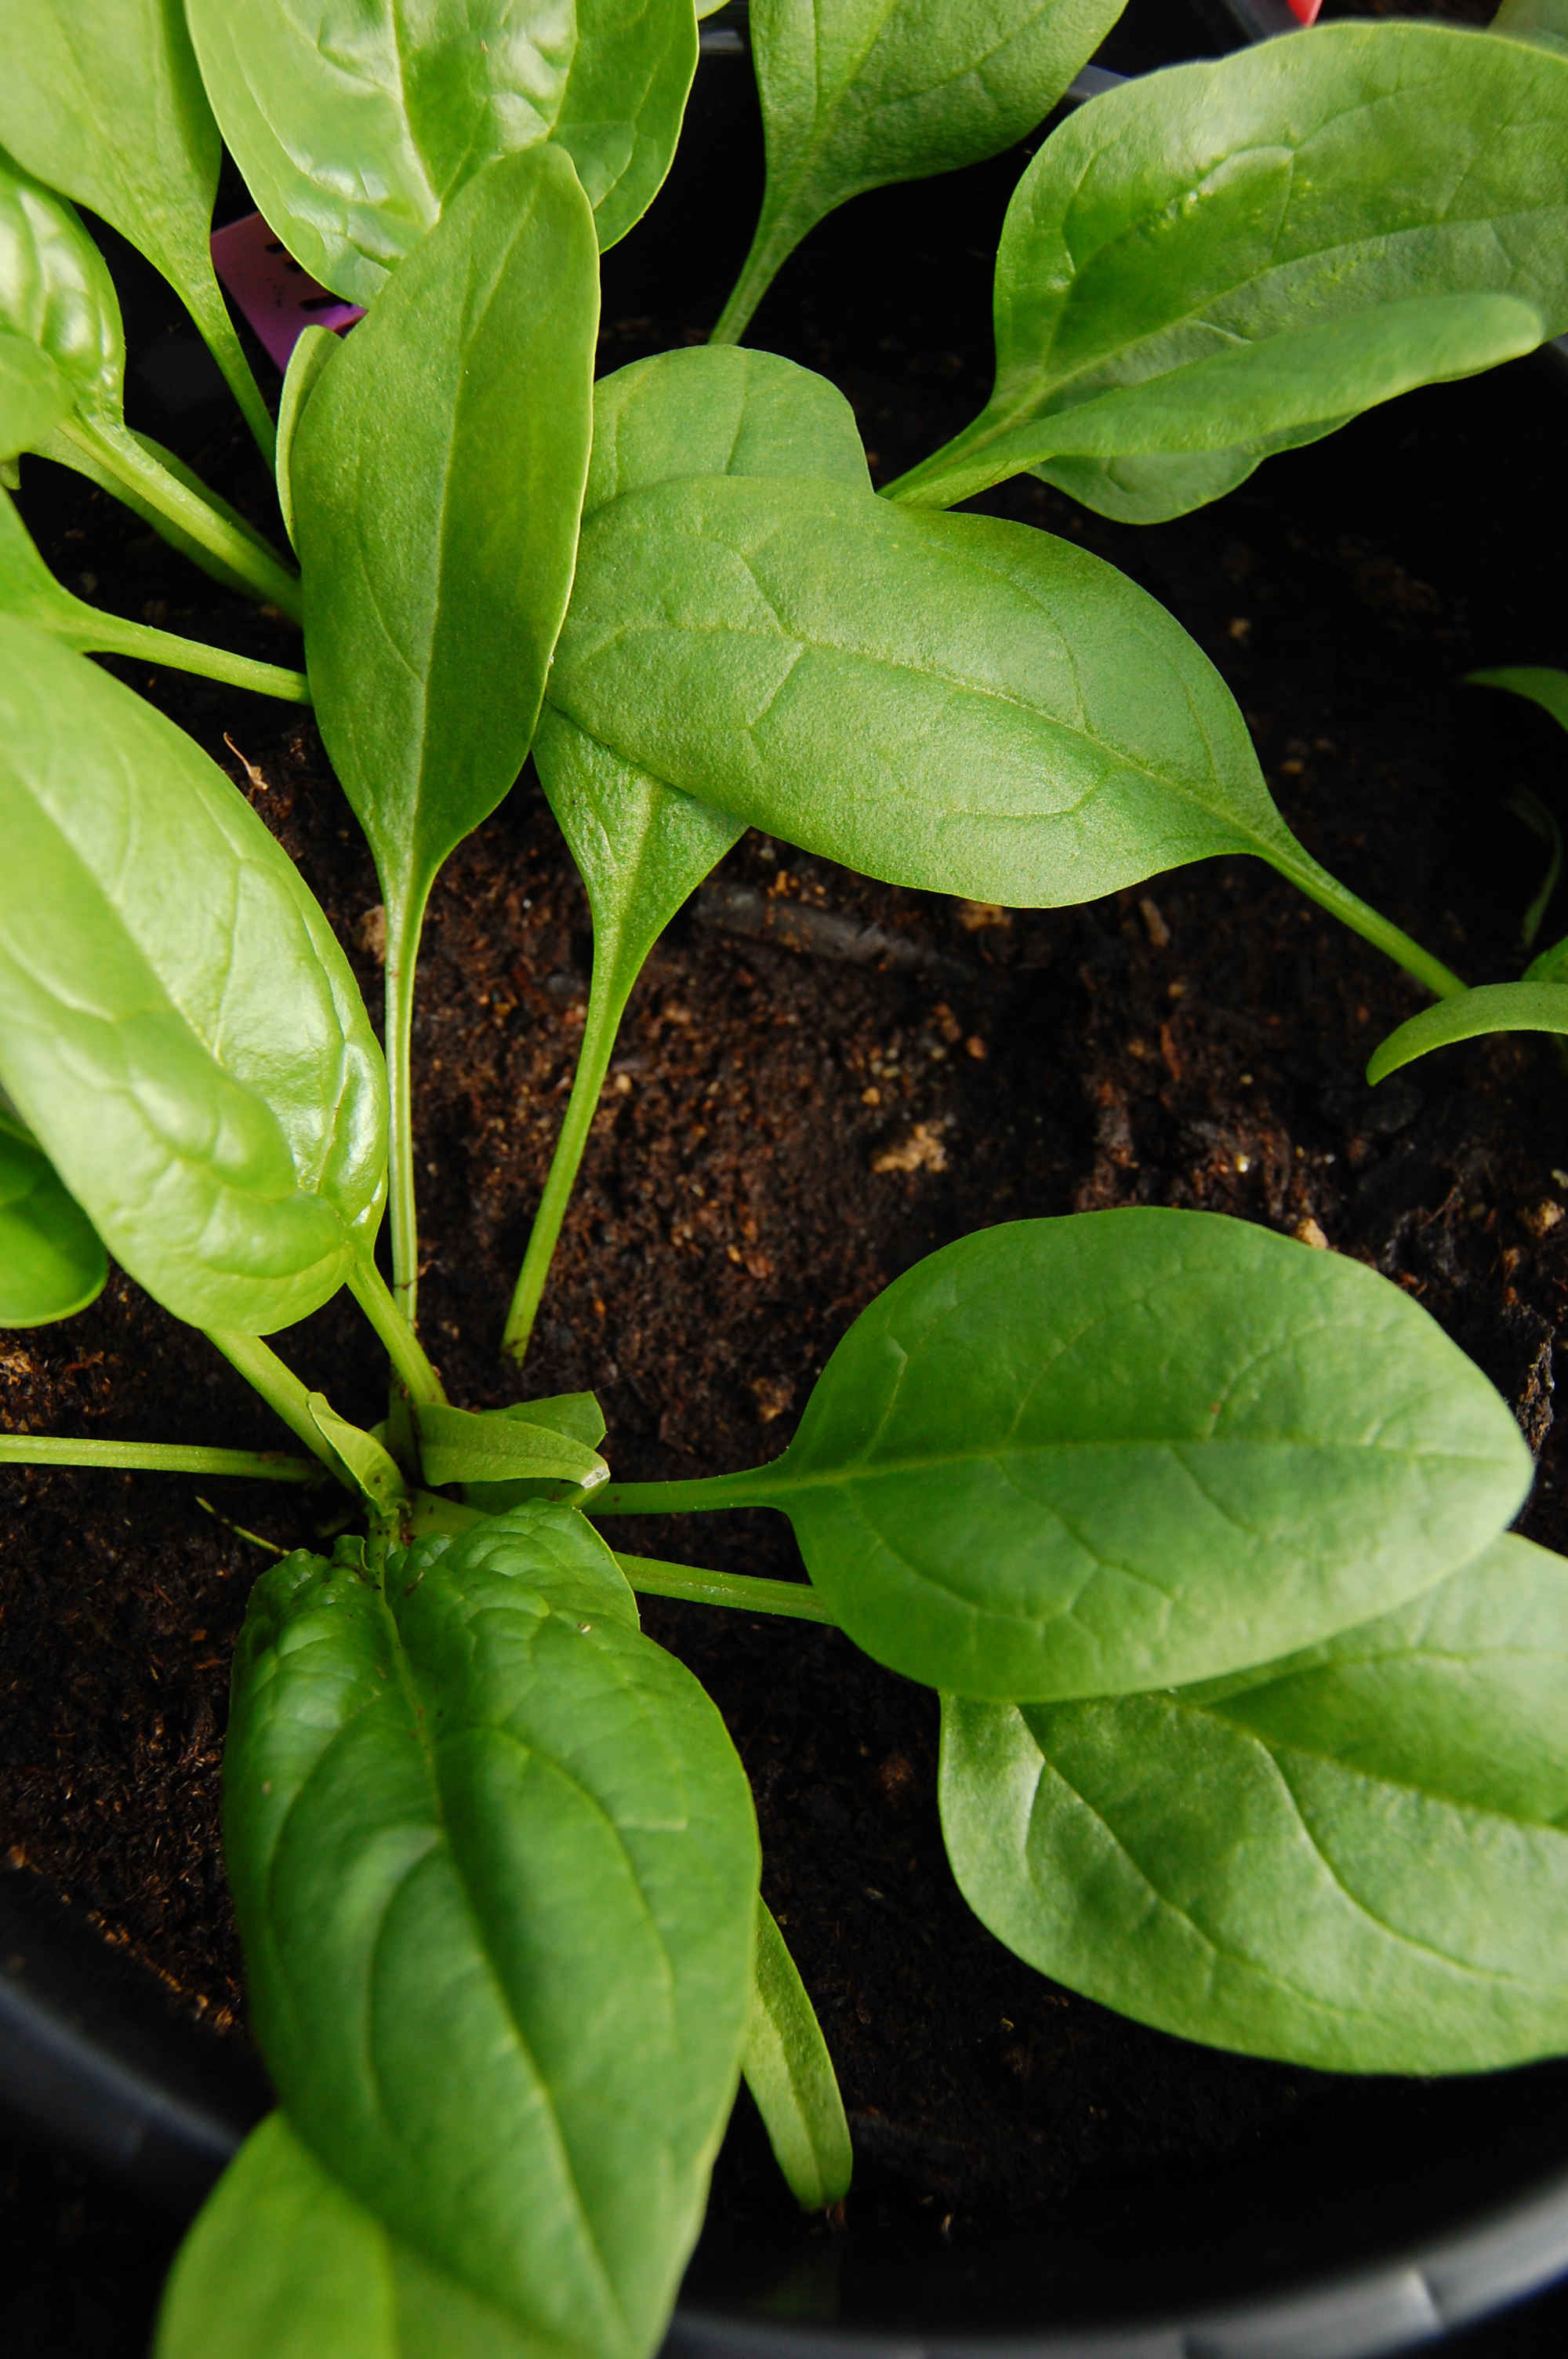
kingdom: Plantae
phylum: Tracheophyta
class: Magnoliopsida
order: Caryophyllales
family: Amaranthaceae
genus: Spinacia
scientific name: Spinacia oleracea
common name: Spinach
